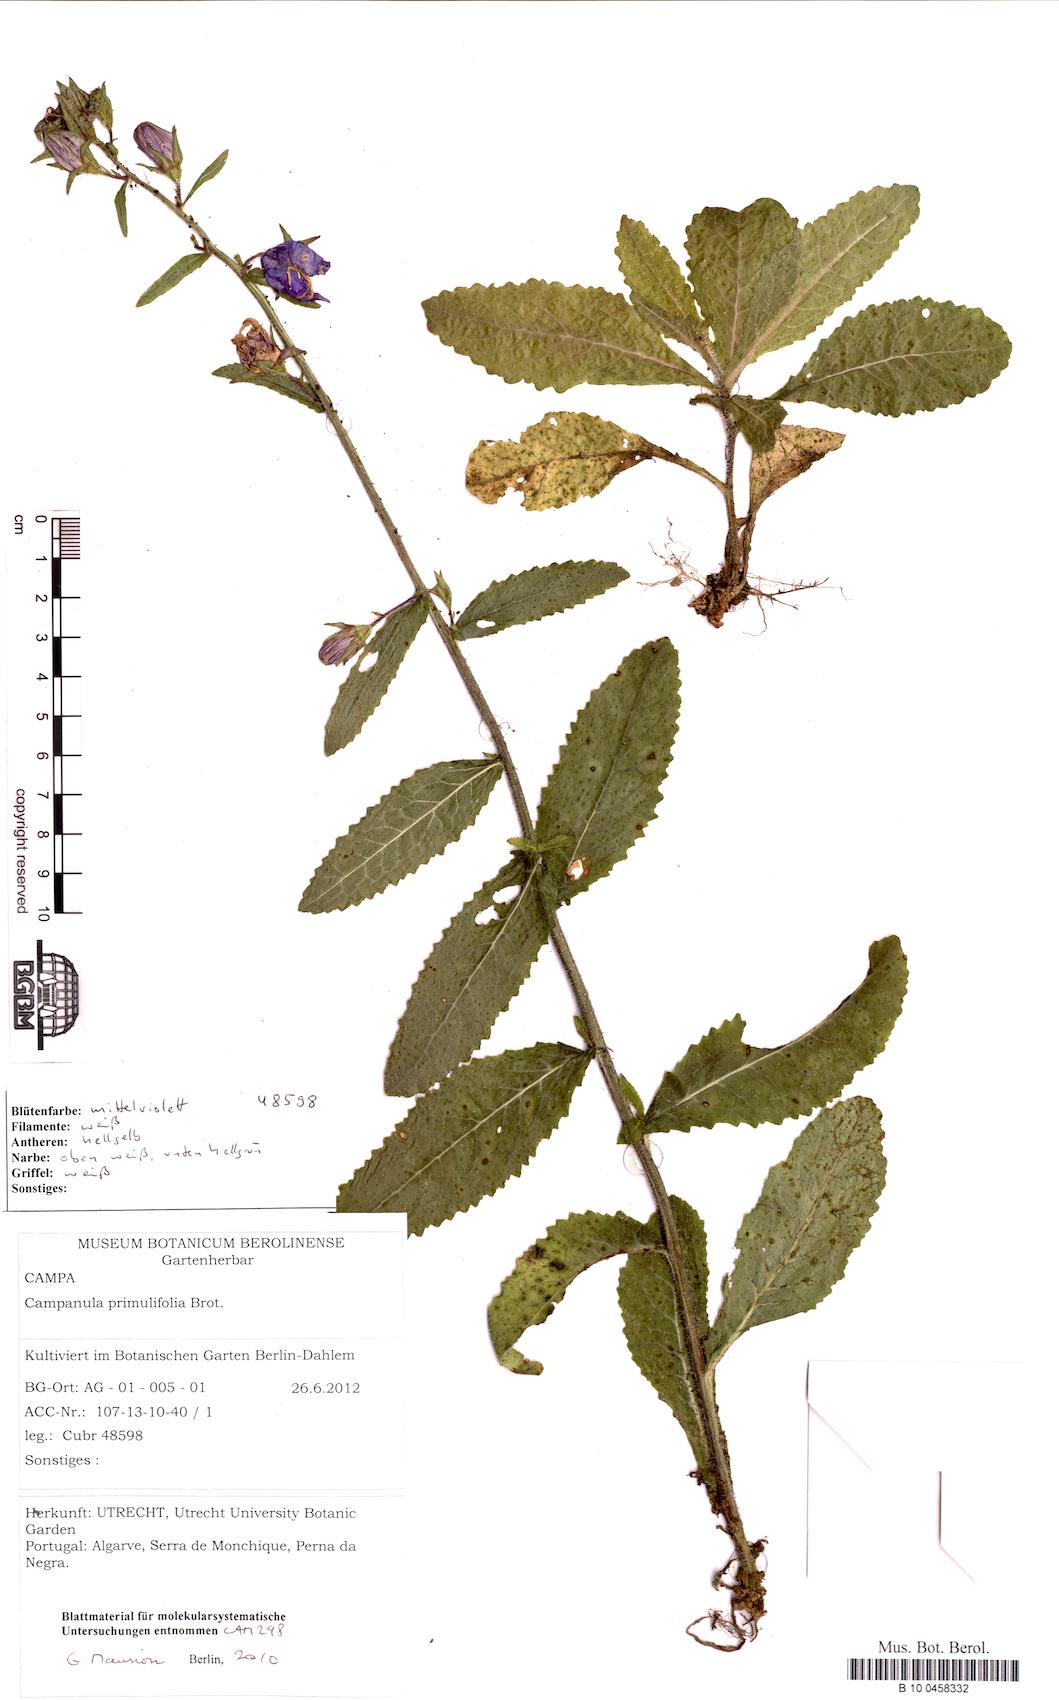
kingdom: Plantae
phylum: Tracheophyta
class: Magnoliopsida
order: Asterales
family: Campanulaceae
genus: Campanula
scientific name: Campanula primulifolia
